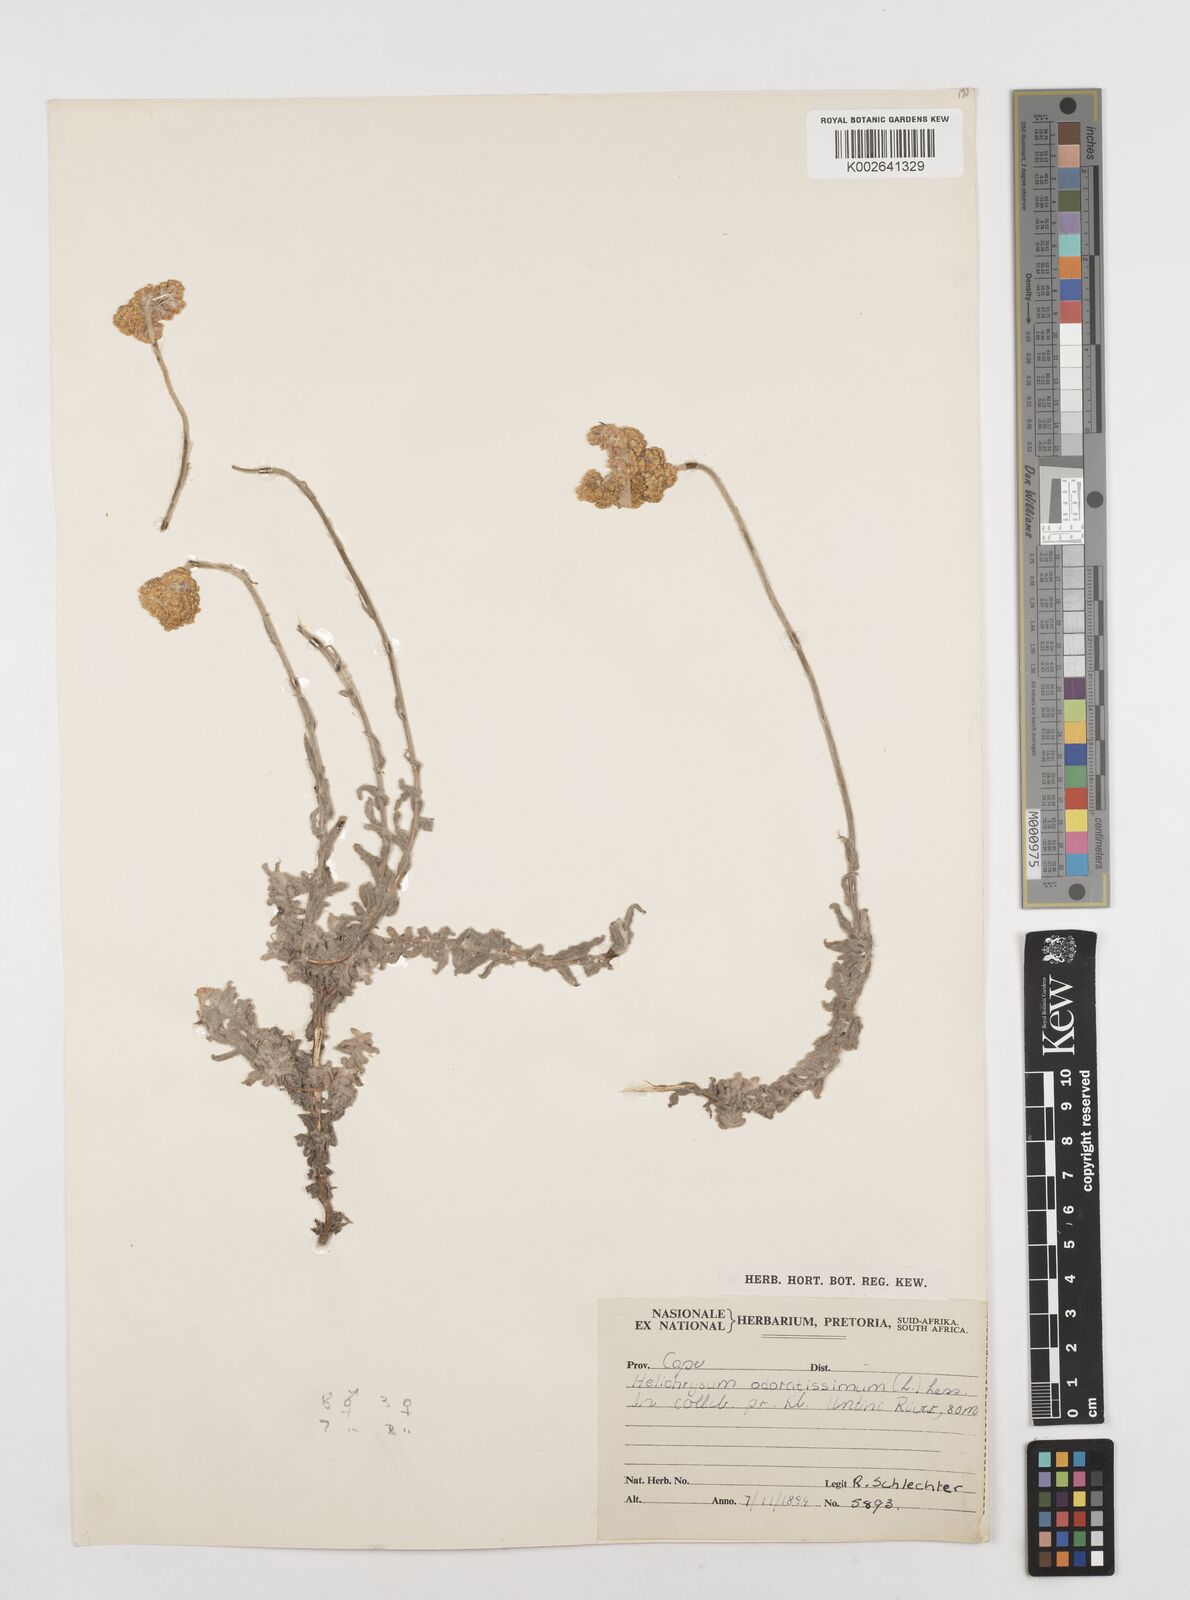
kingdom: Plantae
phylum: Tracheophyta
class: Magnoliopsida
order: Asterales
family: Asteraceae
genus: Helichrysum
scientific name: Helichrysum odoratissimum
